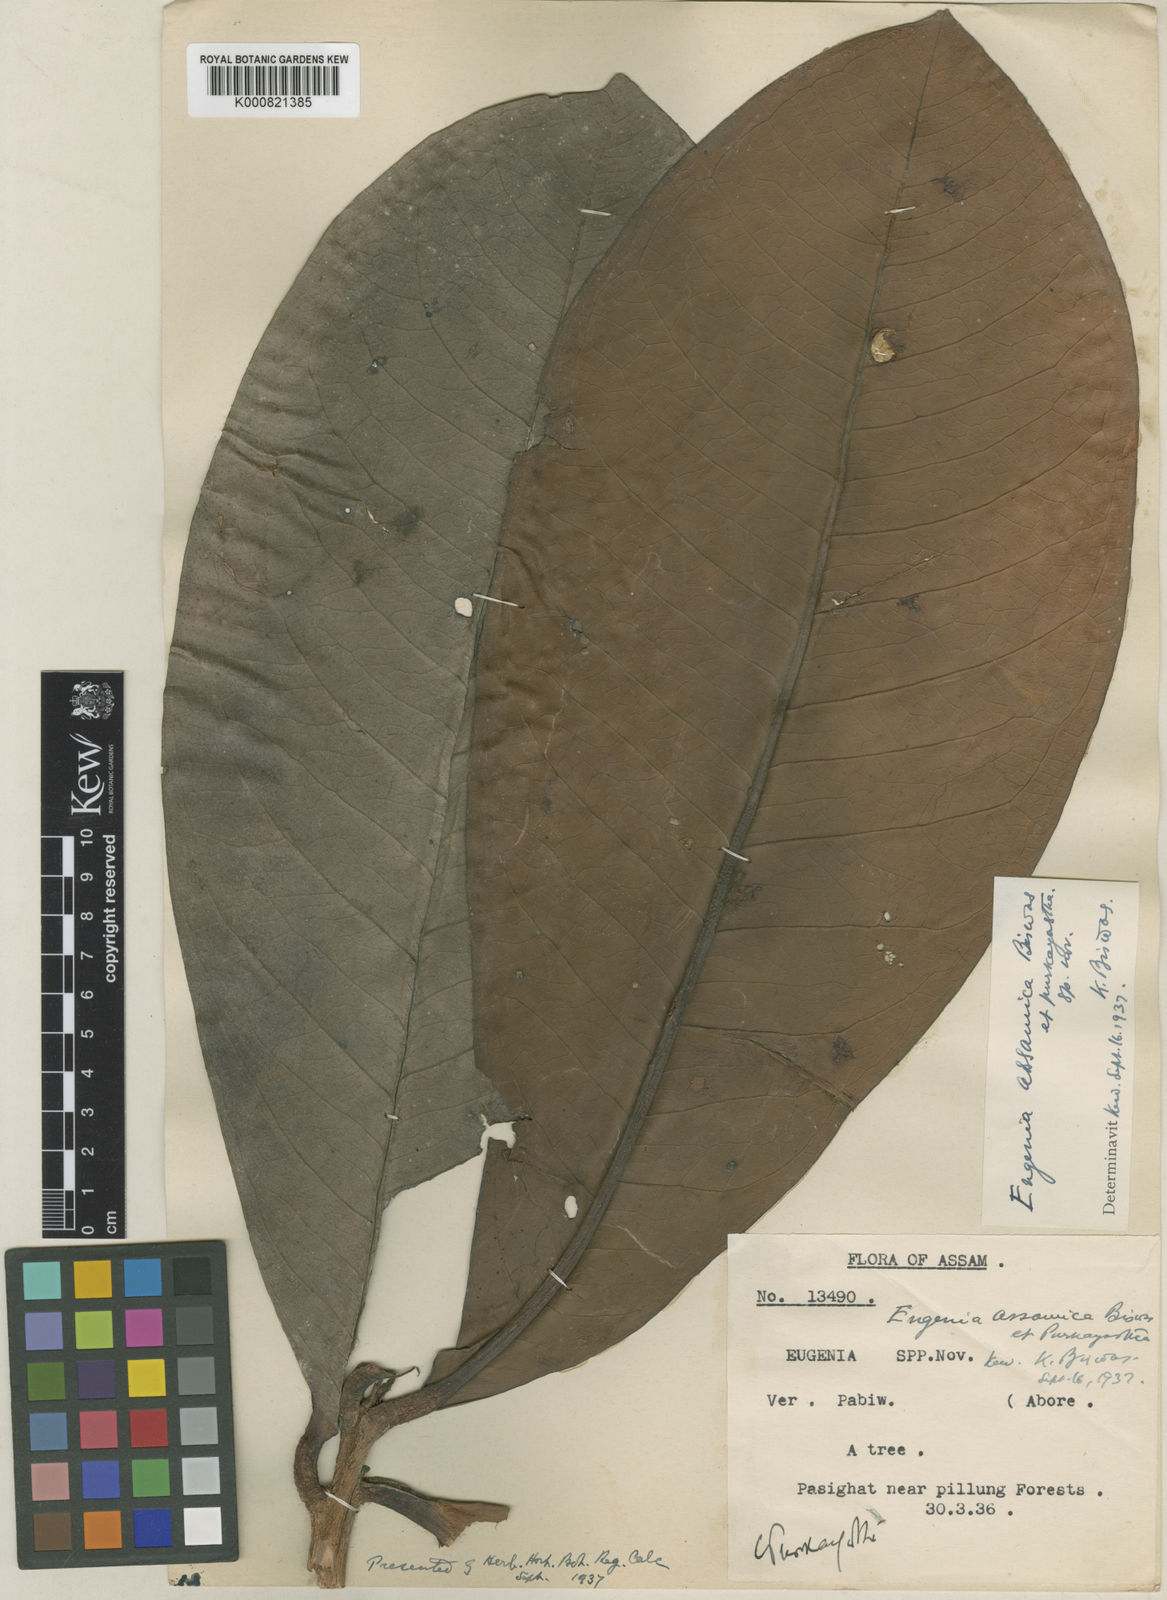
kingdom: Plantae
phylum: Tracheophyta
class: Magnoliopsida
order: Myrtales
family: Myrtaceae
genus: Syzygium
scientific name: Syzygium assamicum
